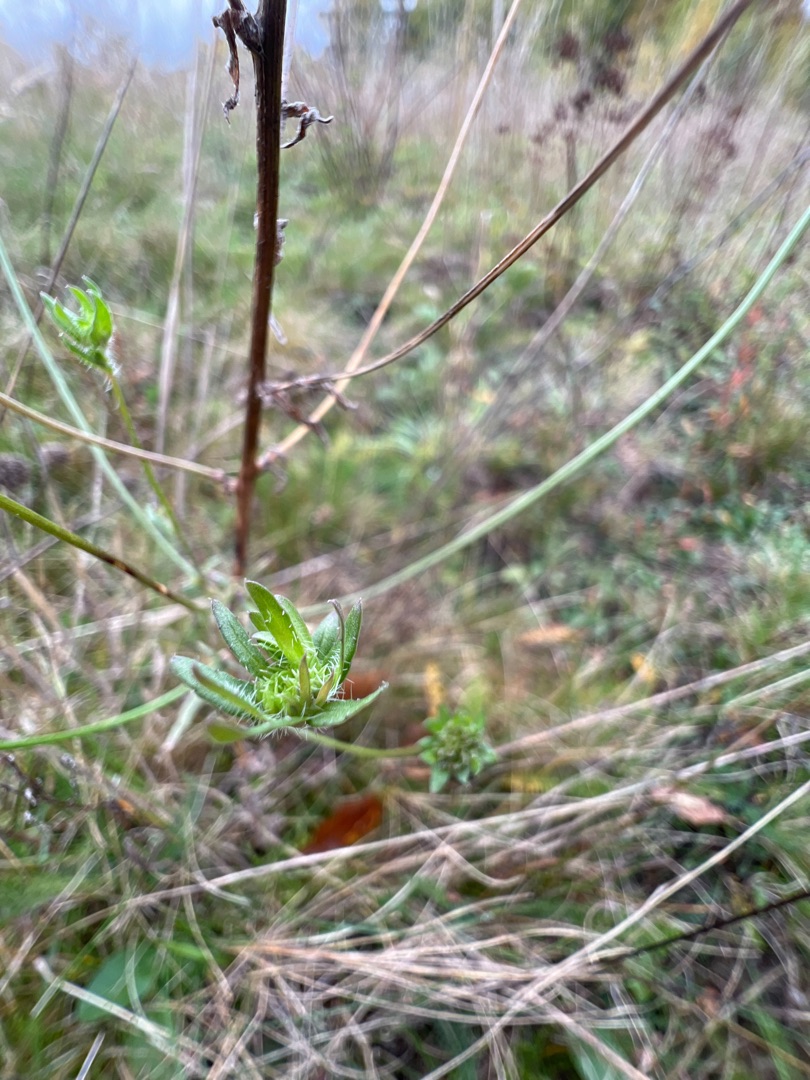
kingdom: Plantae
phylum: Tracheophyta
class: Magnoliopsida
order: Asterales
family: Campanulaceae
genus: Jasione
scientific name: Jasione montana
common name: Blåmunke
